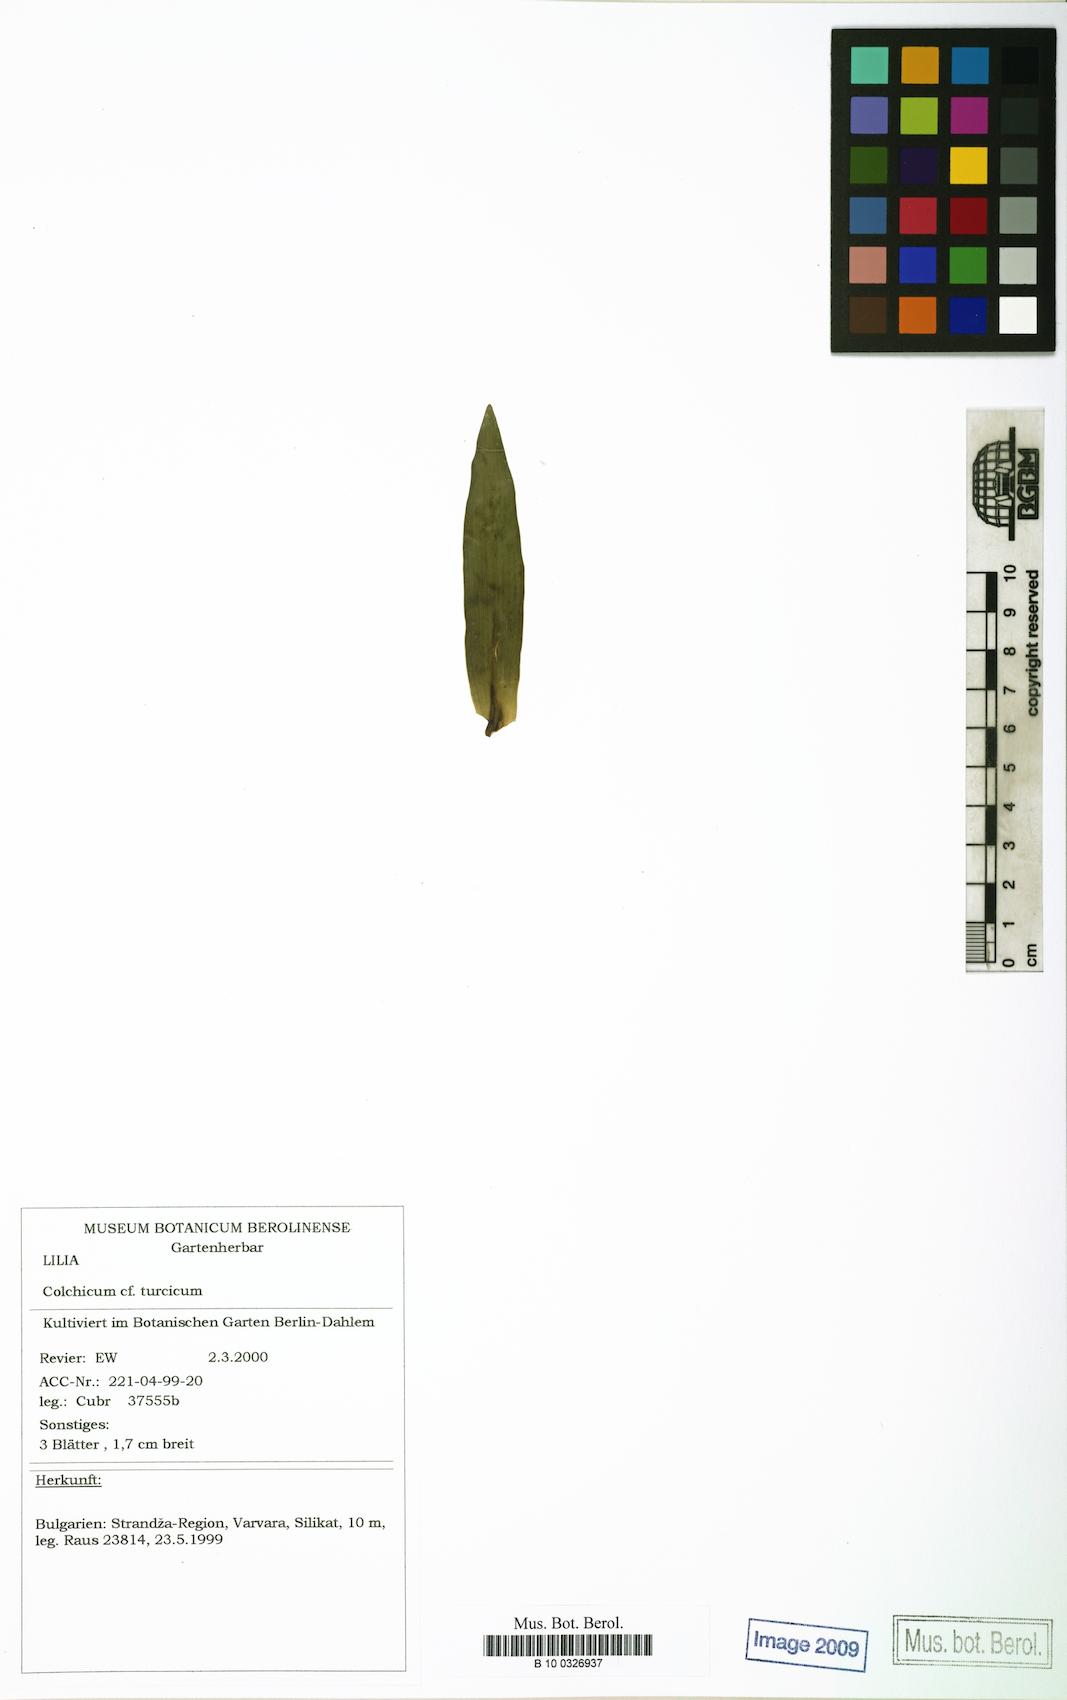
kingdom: Plantae
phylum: Tracheophyta
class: Liliopsida
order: Liliales
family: Colchicaceae
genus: Colchicum
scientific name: Colchicum turcicum
